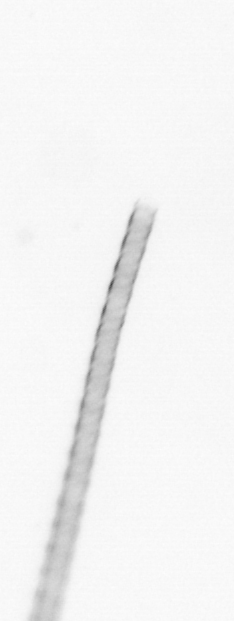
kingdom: Chromista
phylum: Ochrophyta
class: Bacillariophyceae
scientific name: Bacillariophyceae
